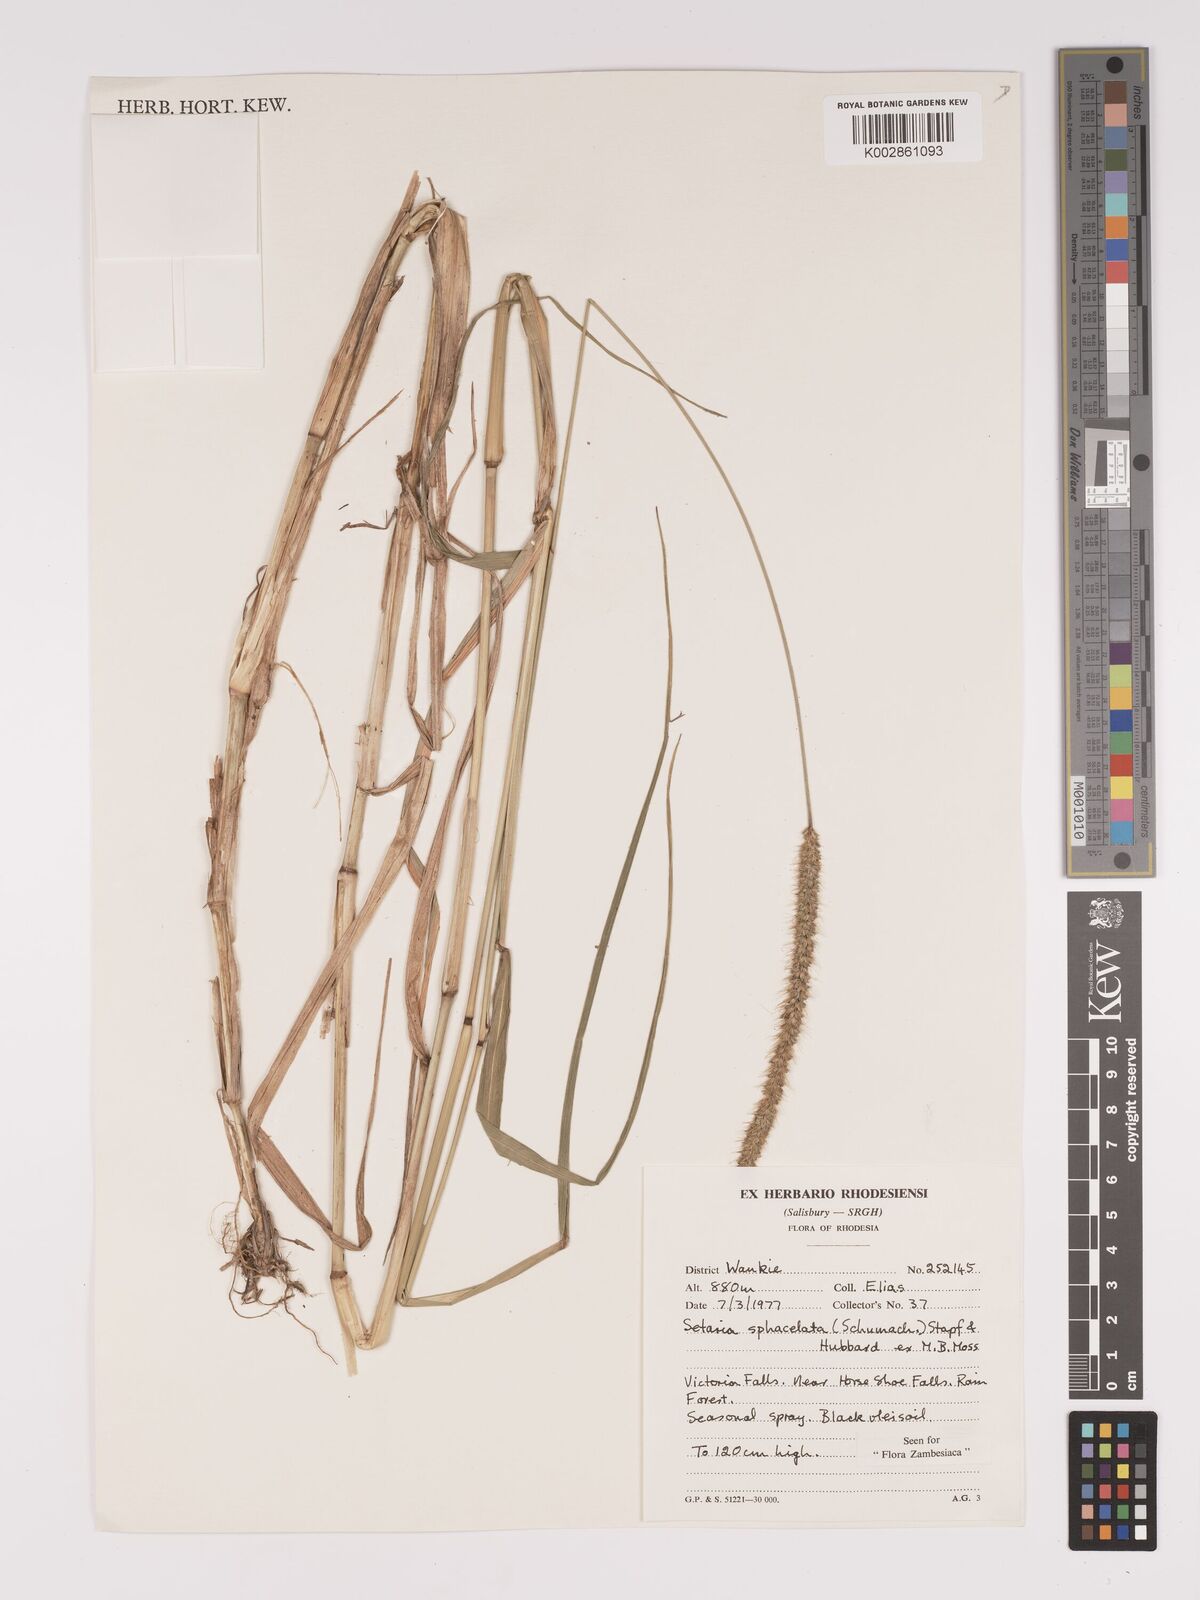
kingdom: Plantae
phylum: Tracheophyta
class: Liliopsida
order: Poales
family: Poaceae
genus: Setaria
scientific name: Setaria sphacelata
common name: African bristlegrass
